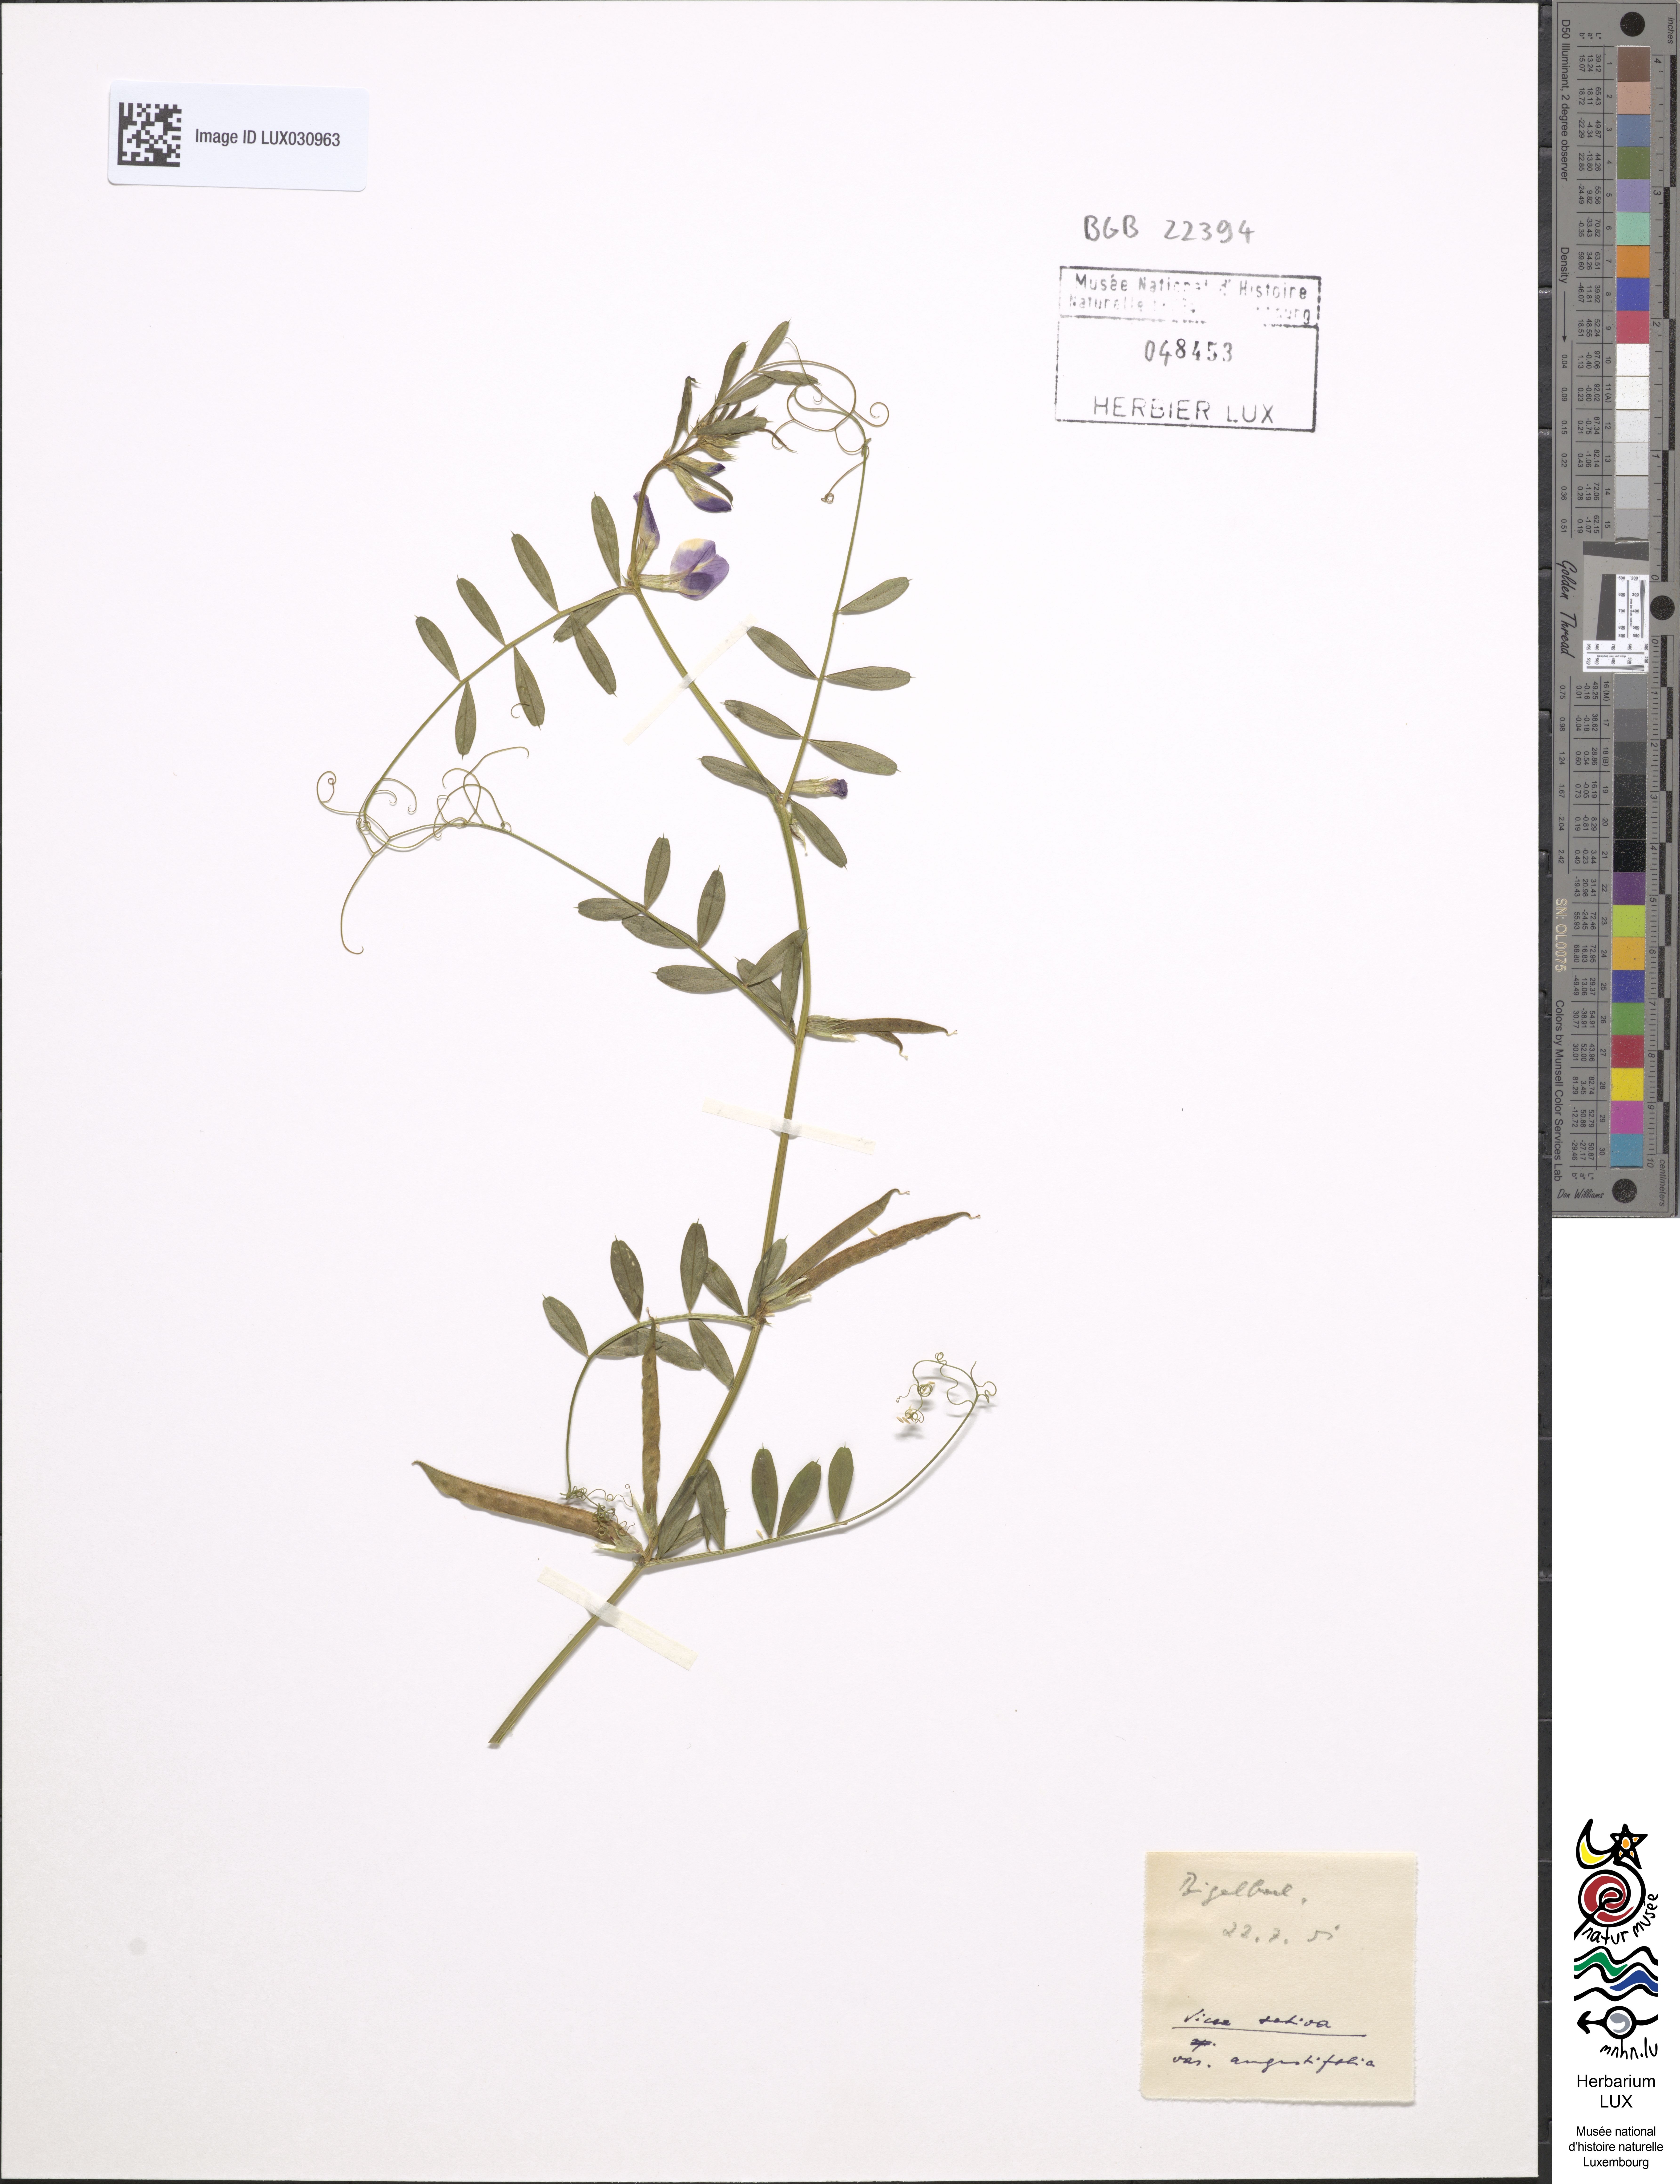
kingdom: Plantae
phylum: Tracheophyta
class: Magnoliopsida
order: Fabales
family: Fabaceae
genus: Vicia
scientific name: Vicia sativa
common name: Garden vetch
